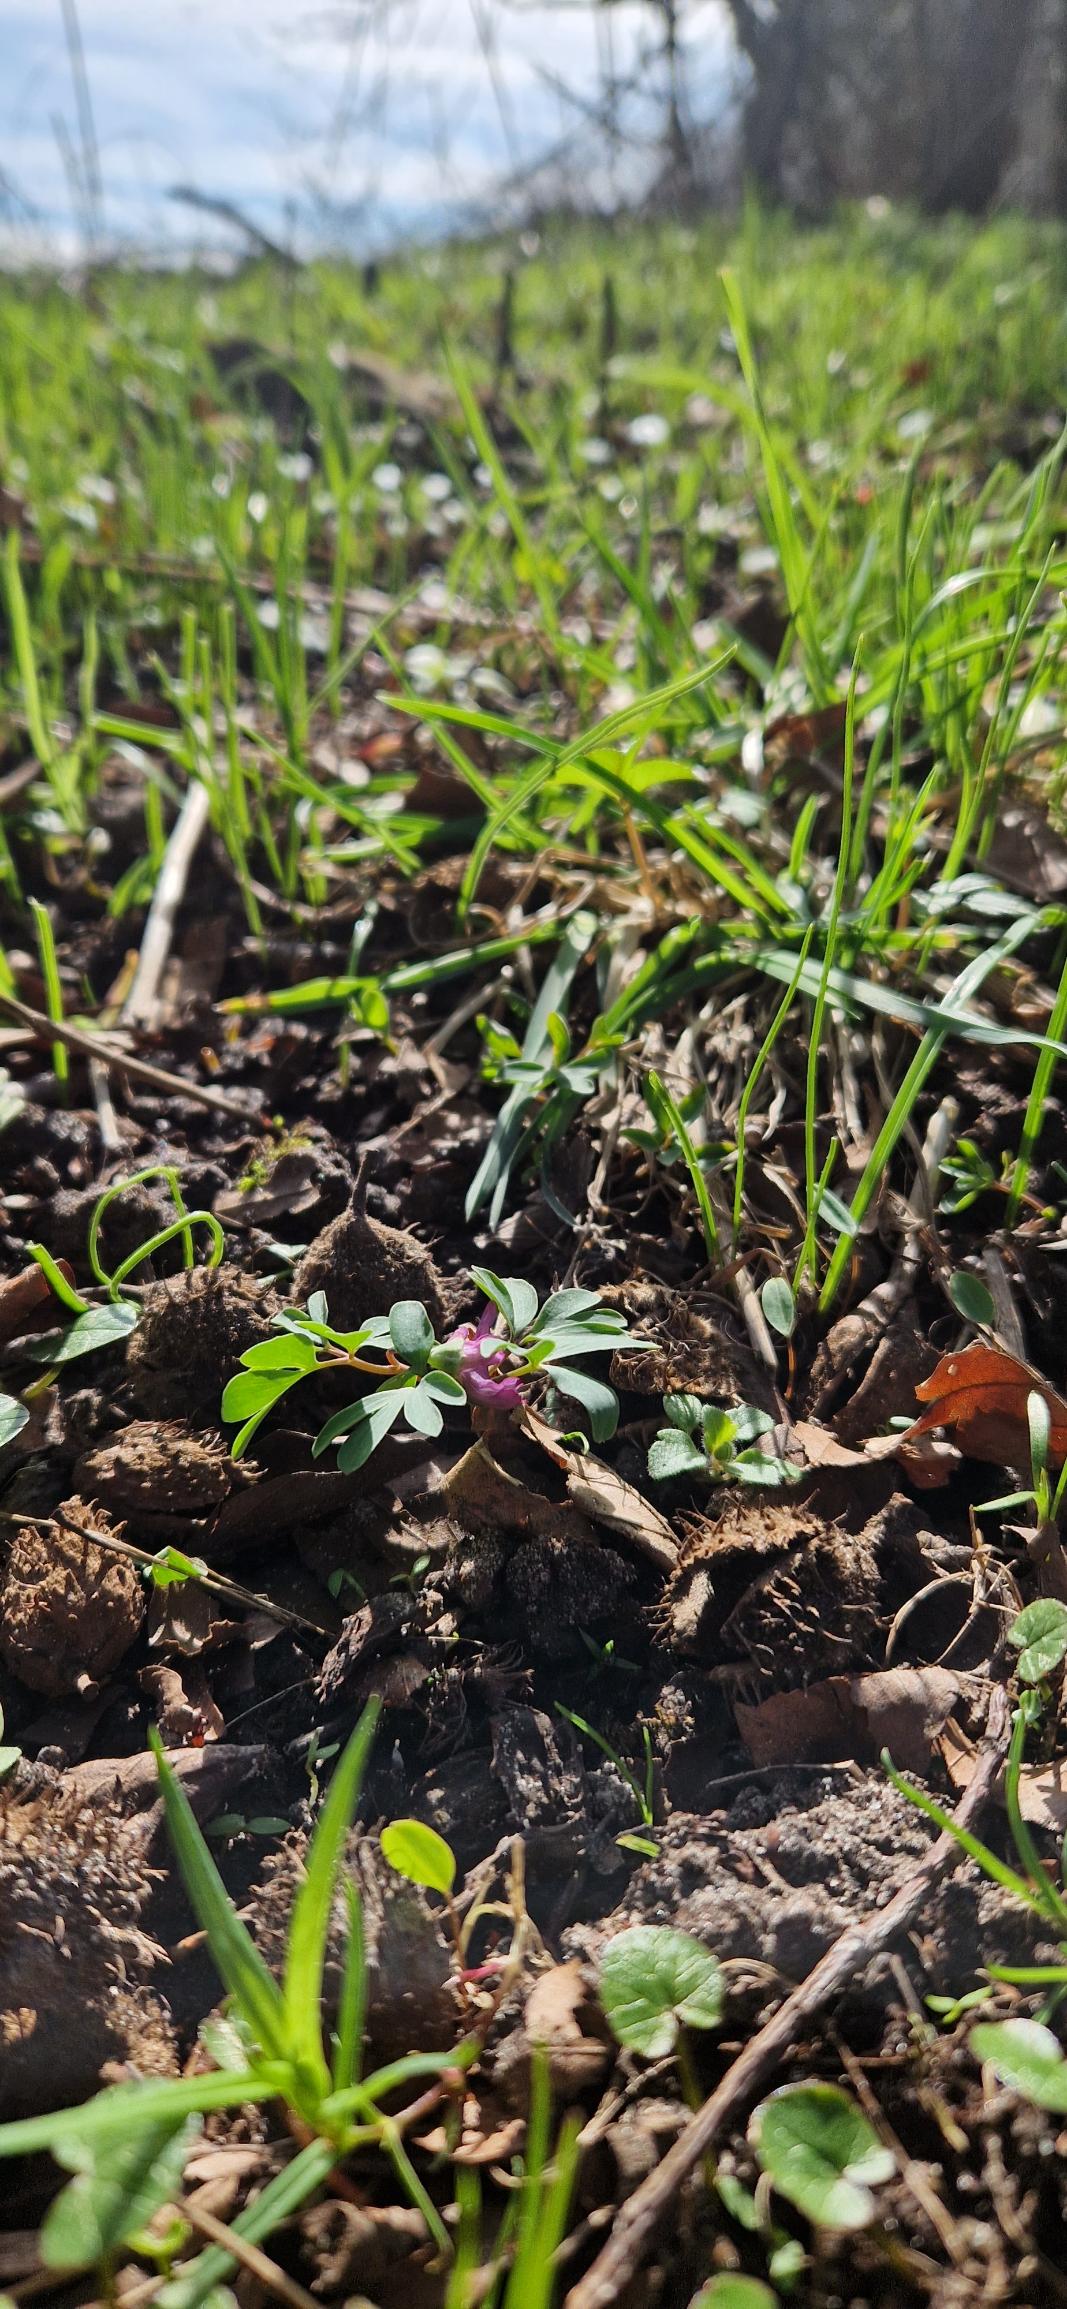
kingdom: Plantae
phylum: Tracheophyta
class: Magnoliopsida
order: Ranunculales
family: Papaveraceae
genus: Corydalis
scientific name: Corydalis intermedia
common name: Liden lærkespore
